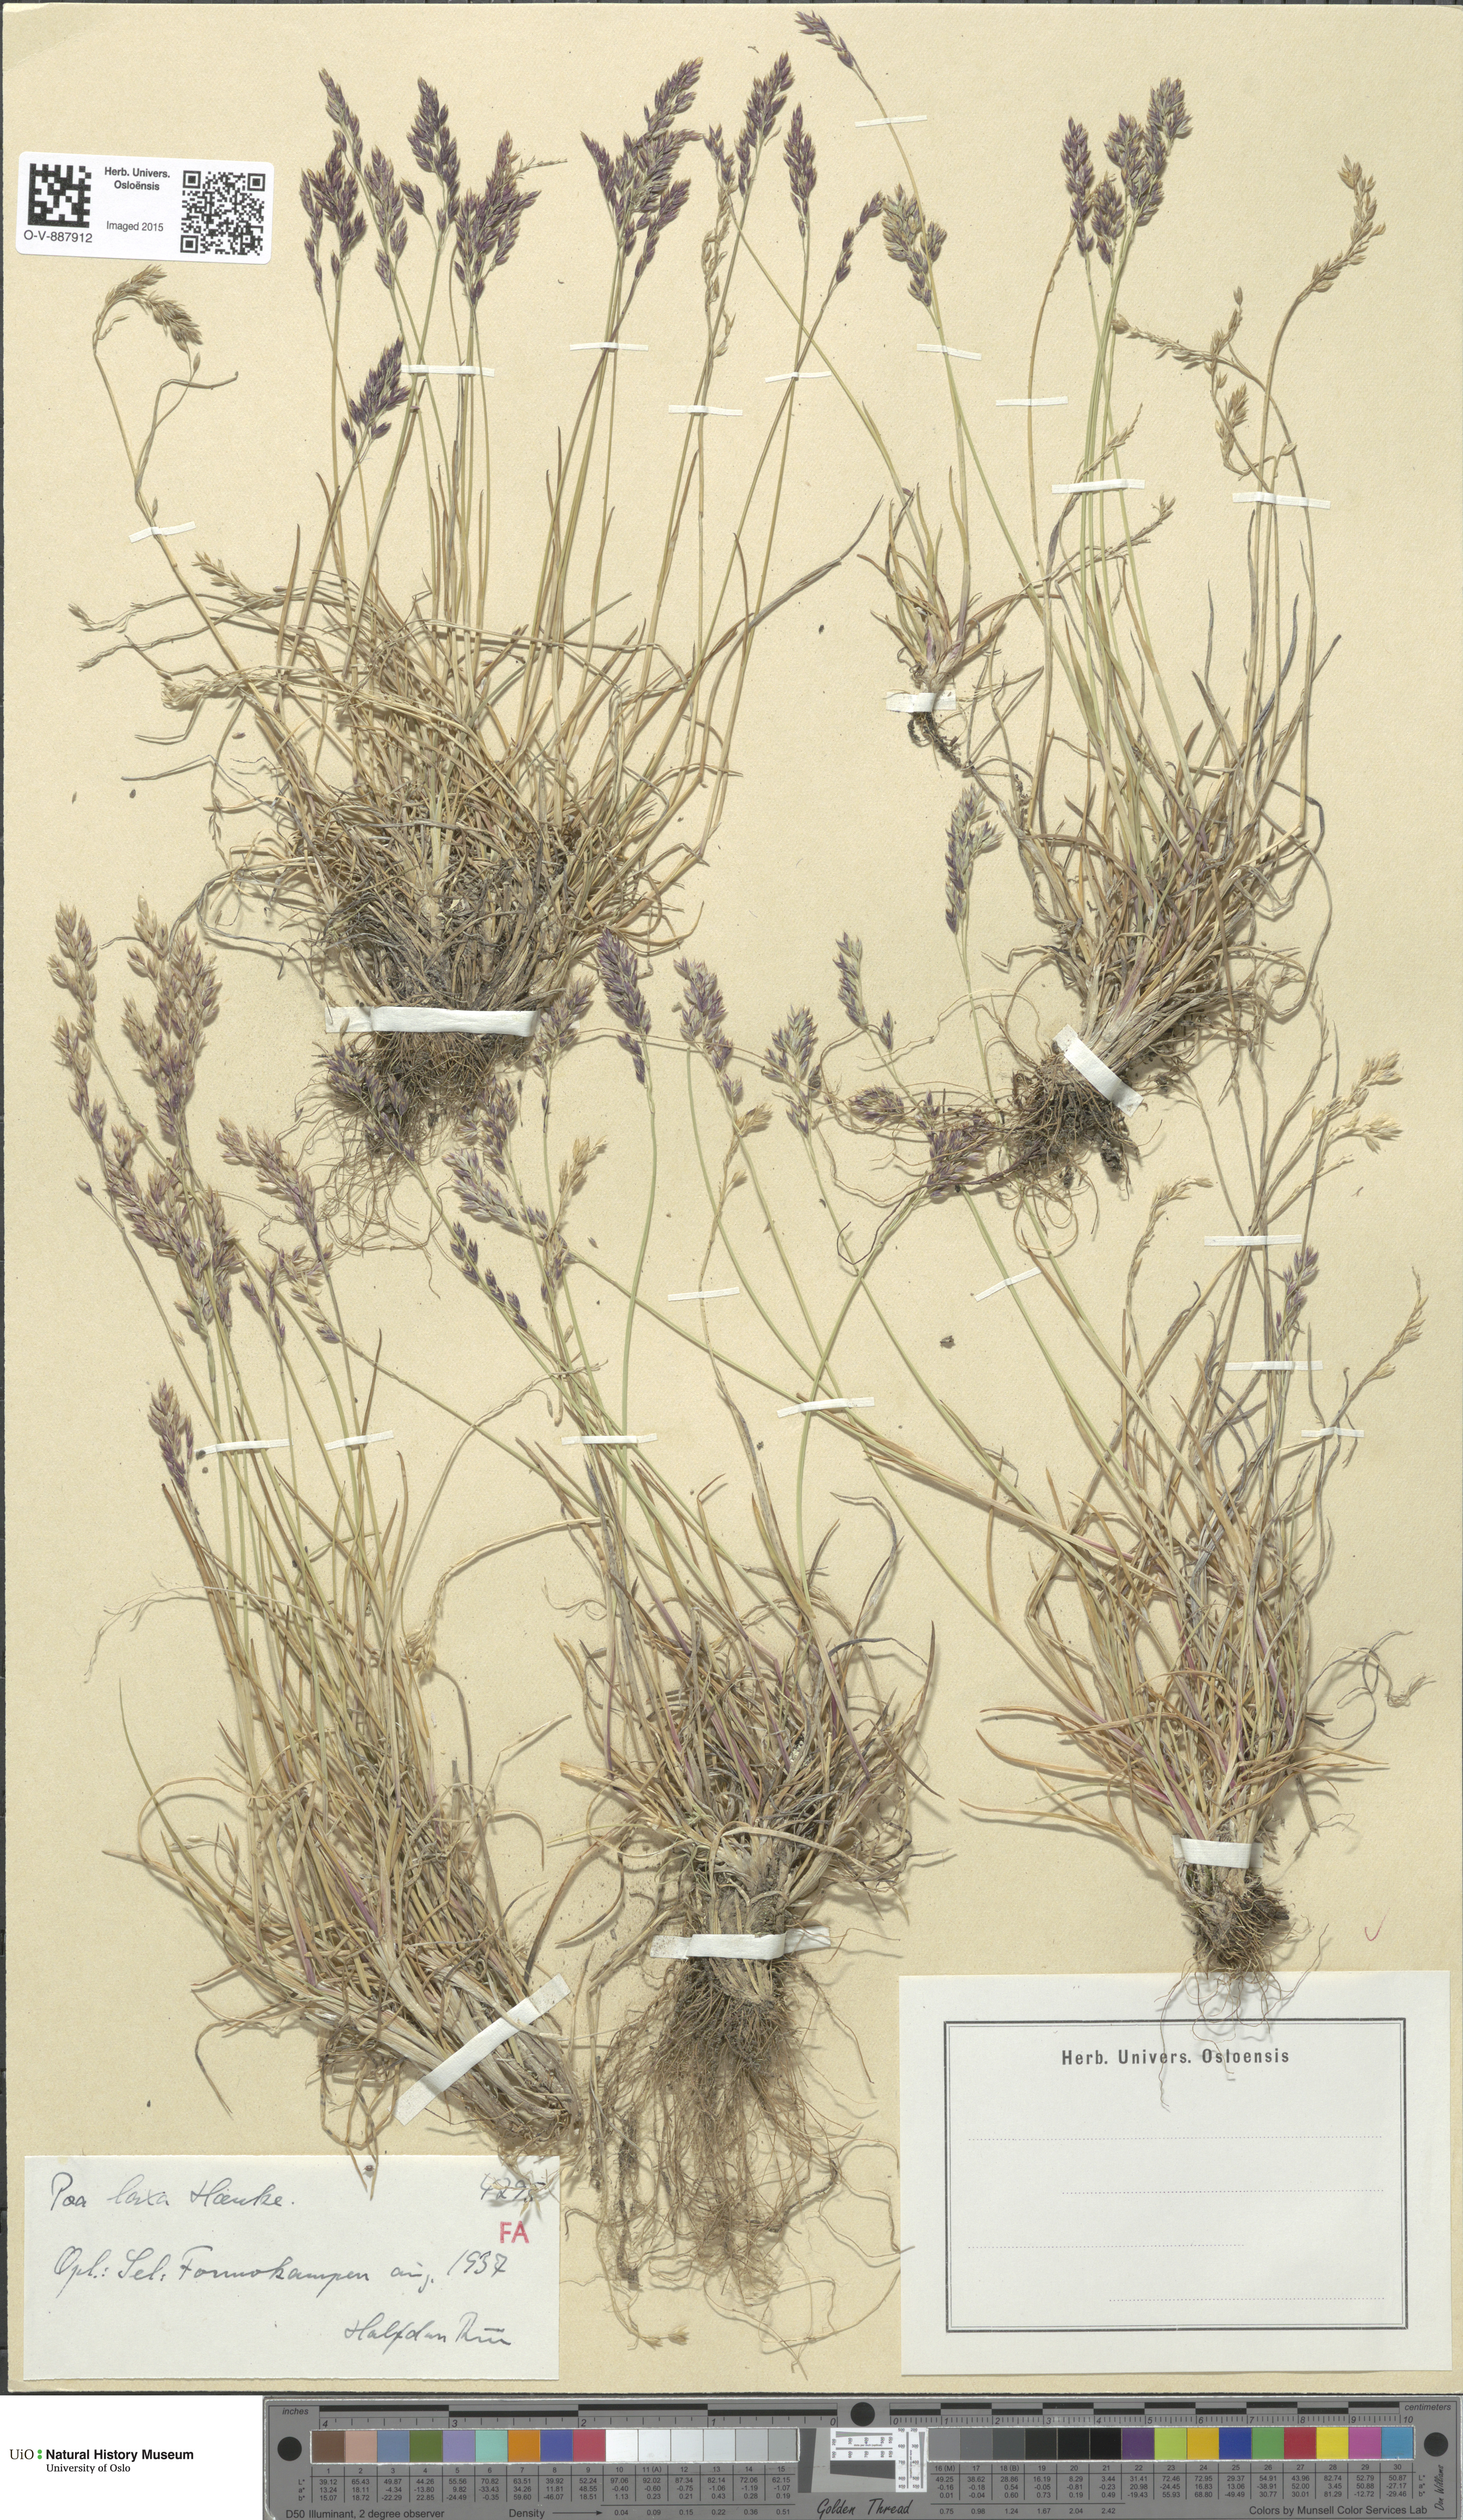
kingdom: Plantae
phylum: Tracheophyta
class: Liliopsida
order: Poales
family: Poaceae
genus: Poa
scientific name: Poa flexuosa
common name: Wavy meadow-grass
